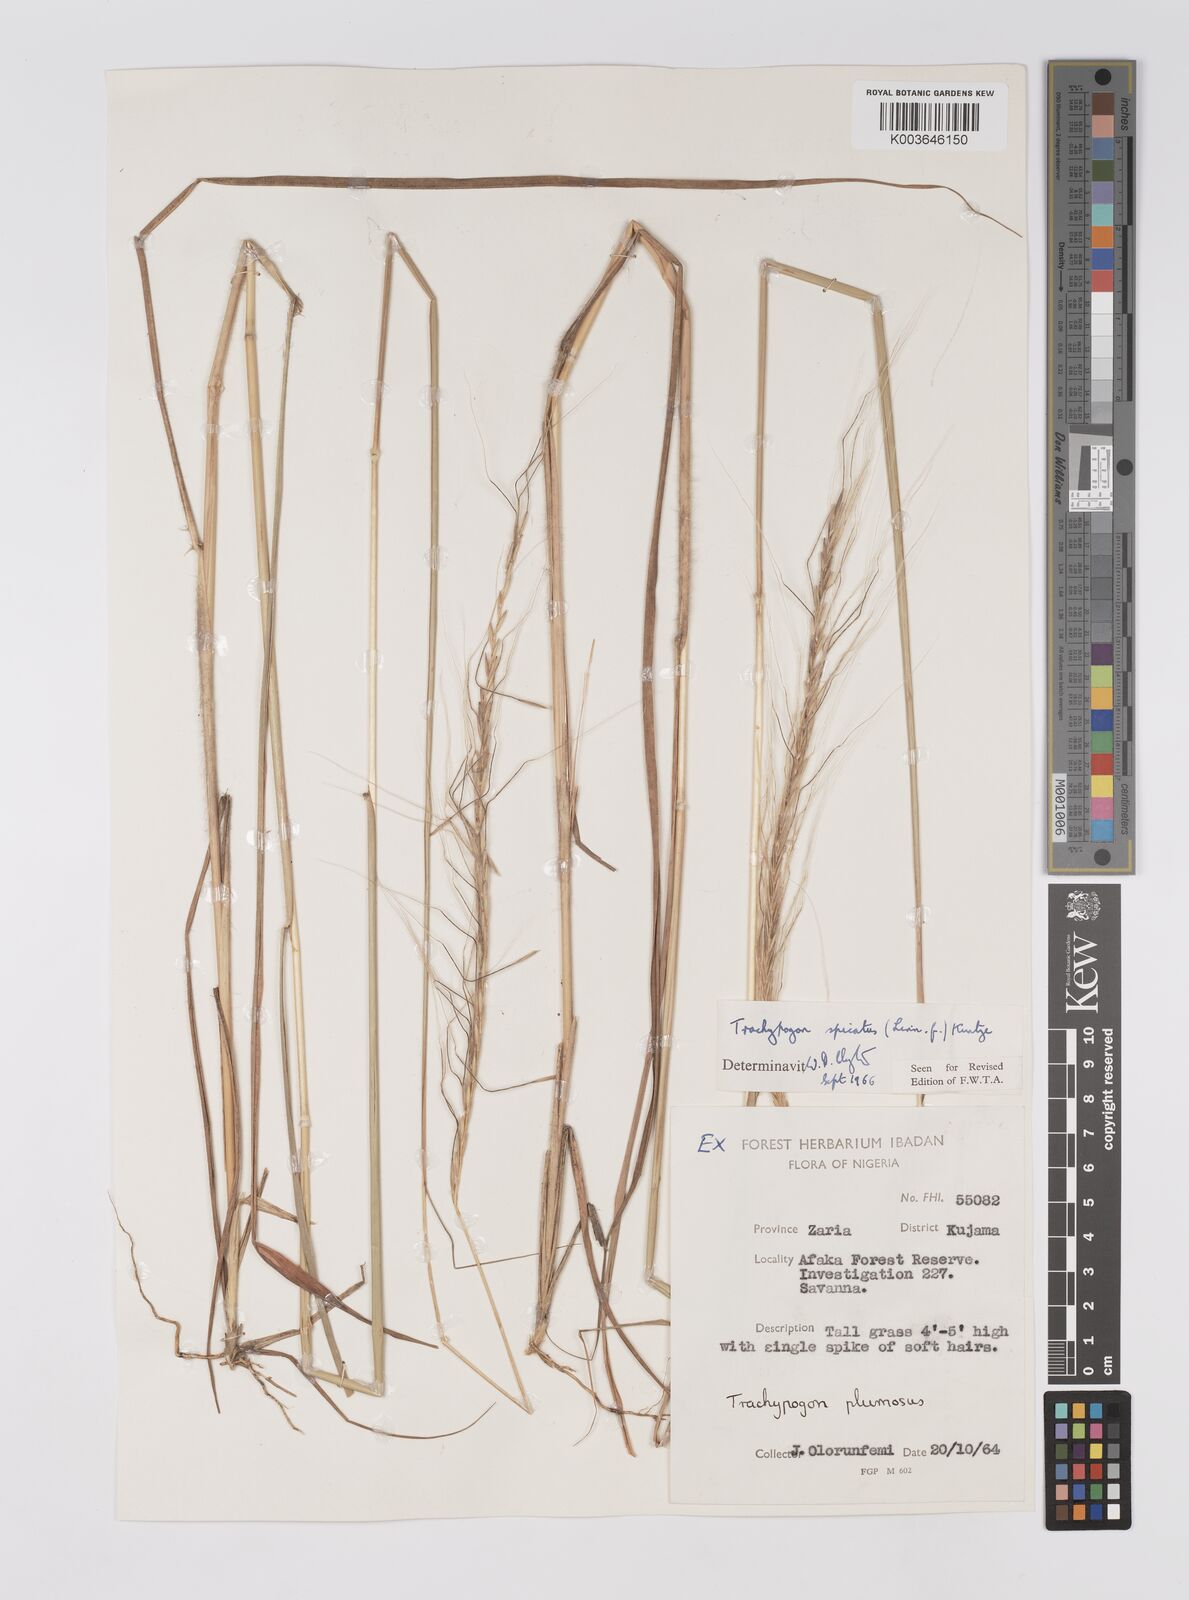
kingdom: Plantae
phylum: Tracheophyta
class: Liliopsida
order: Poales
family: Poaceae
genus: Trachypogon
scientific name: Trachypogon spicatus
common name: Crinkle-awn
